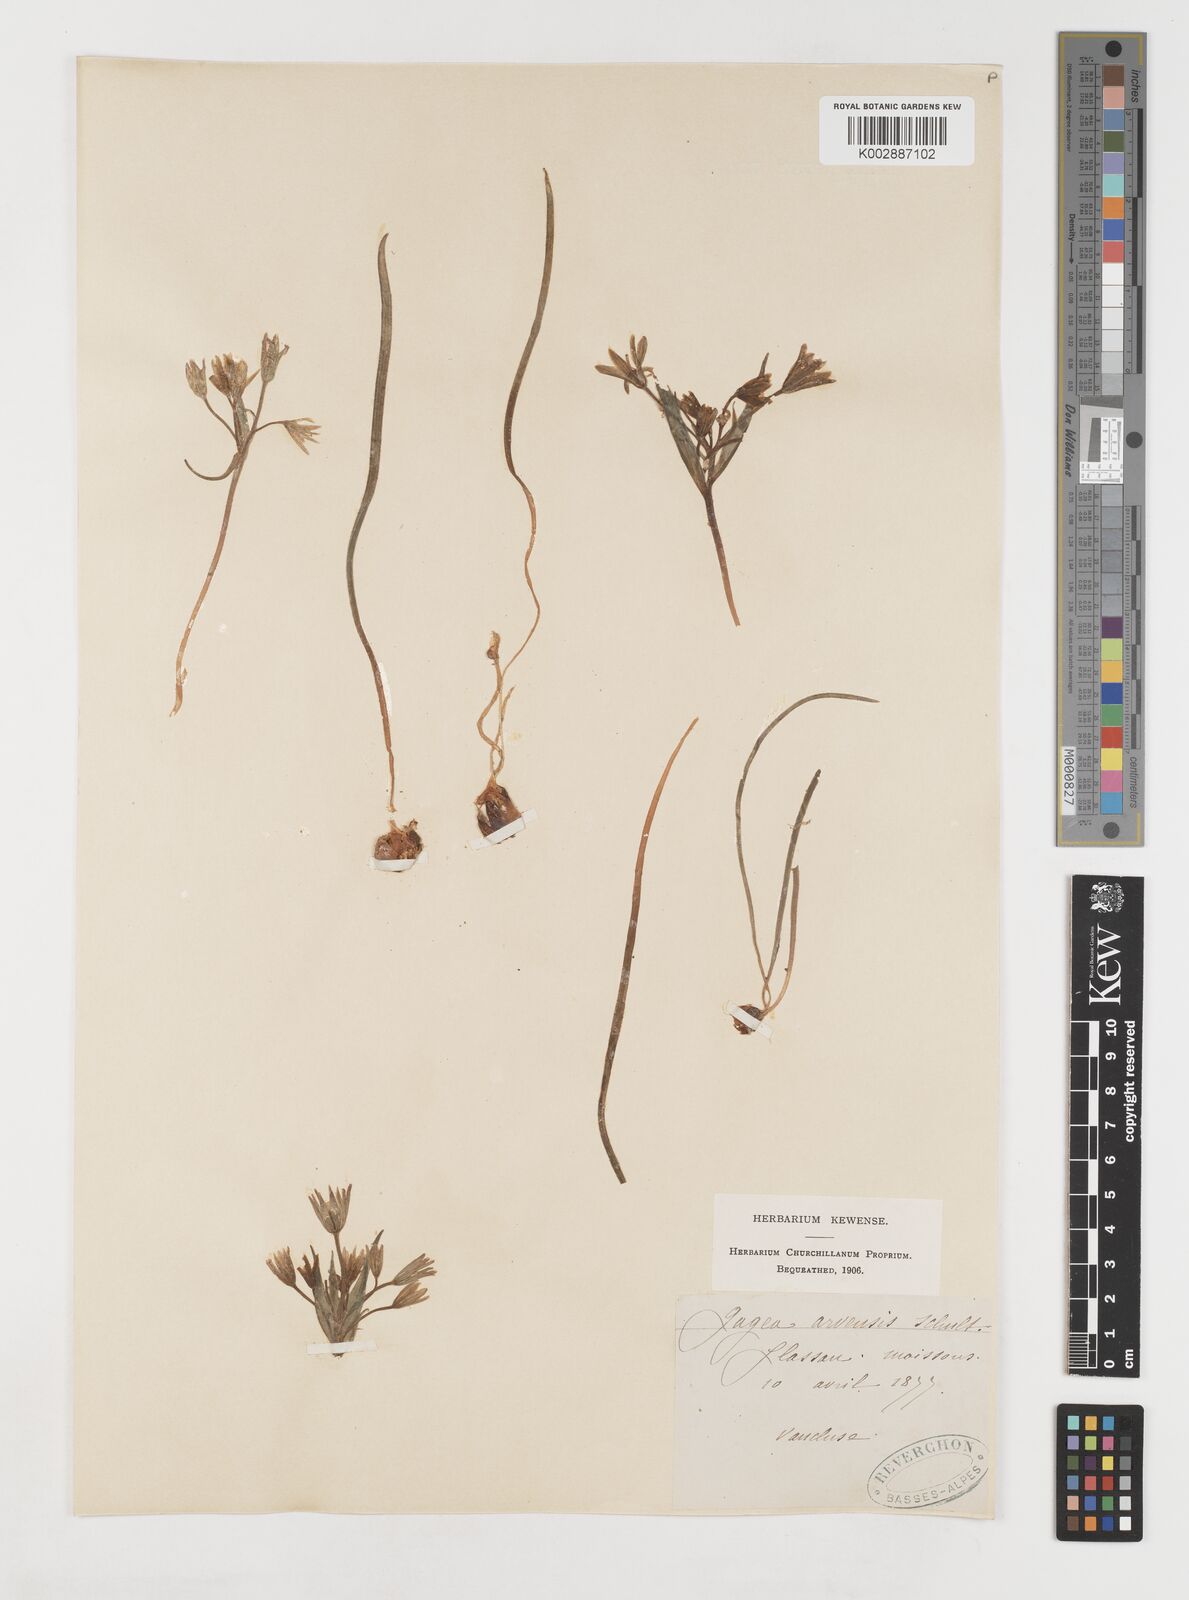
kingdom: Plantae
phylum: Tracheophyta
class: Liliopsida
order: Liliales
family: Liliaceae
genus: Gagea
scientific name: Gagea minima
